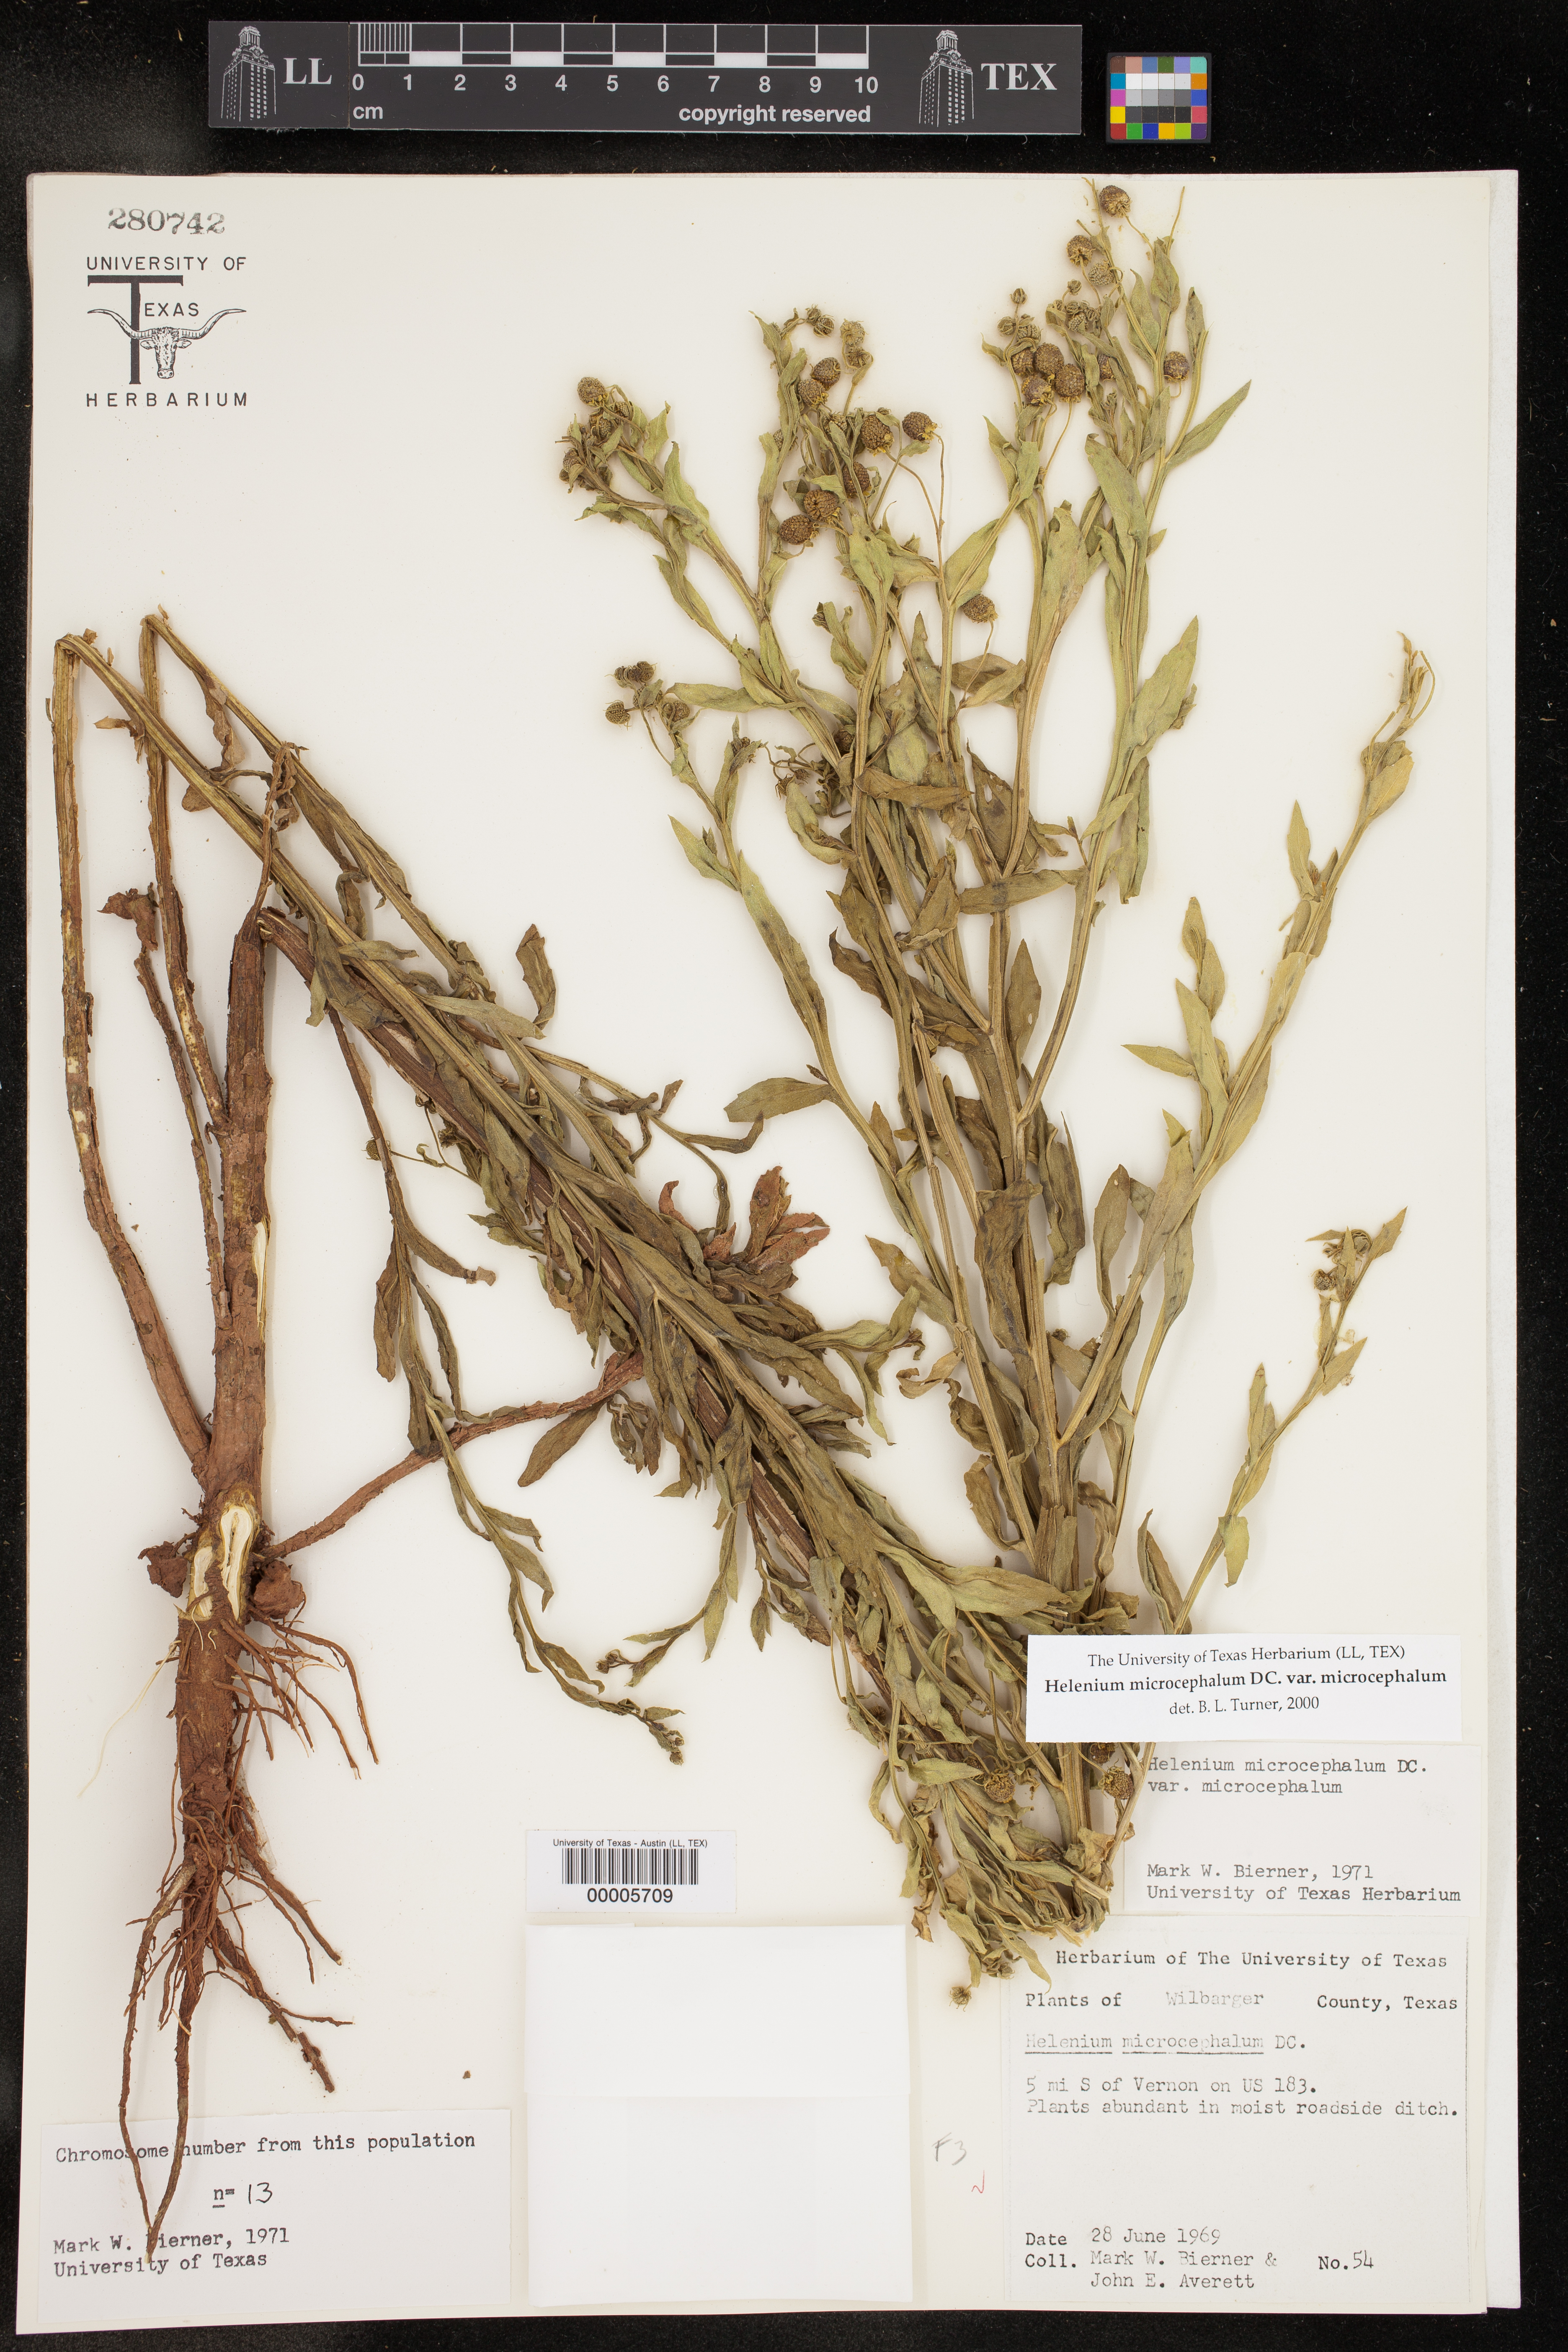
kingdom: Plantae
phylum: Tracheophyta
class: Magnoliopsida
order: Asterales
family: Asteraceae
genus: Helenium
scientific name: Helenium microcephalum
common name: Smallhead sneezeweed
